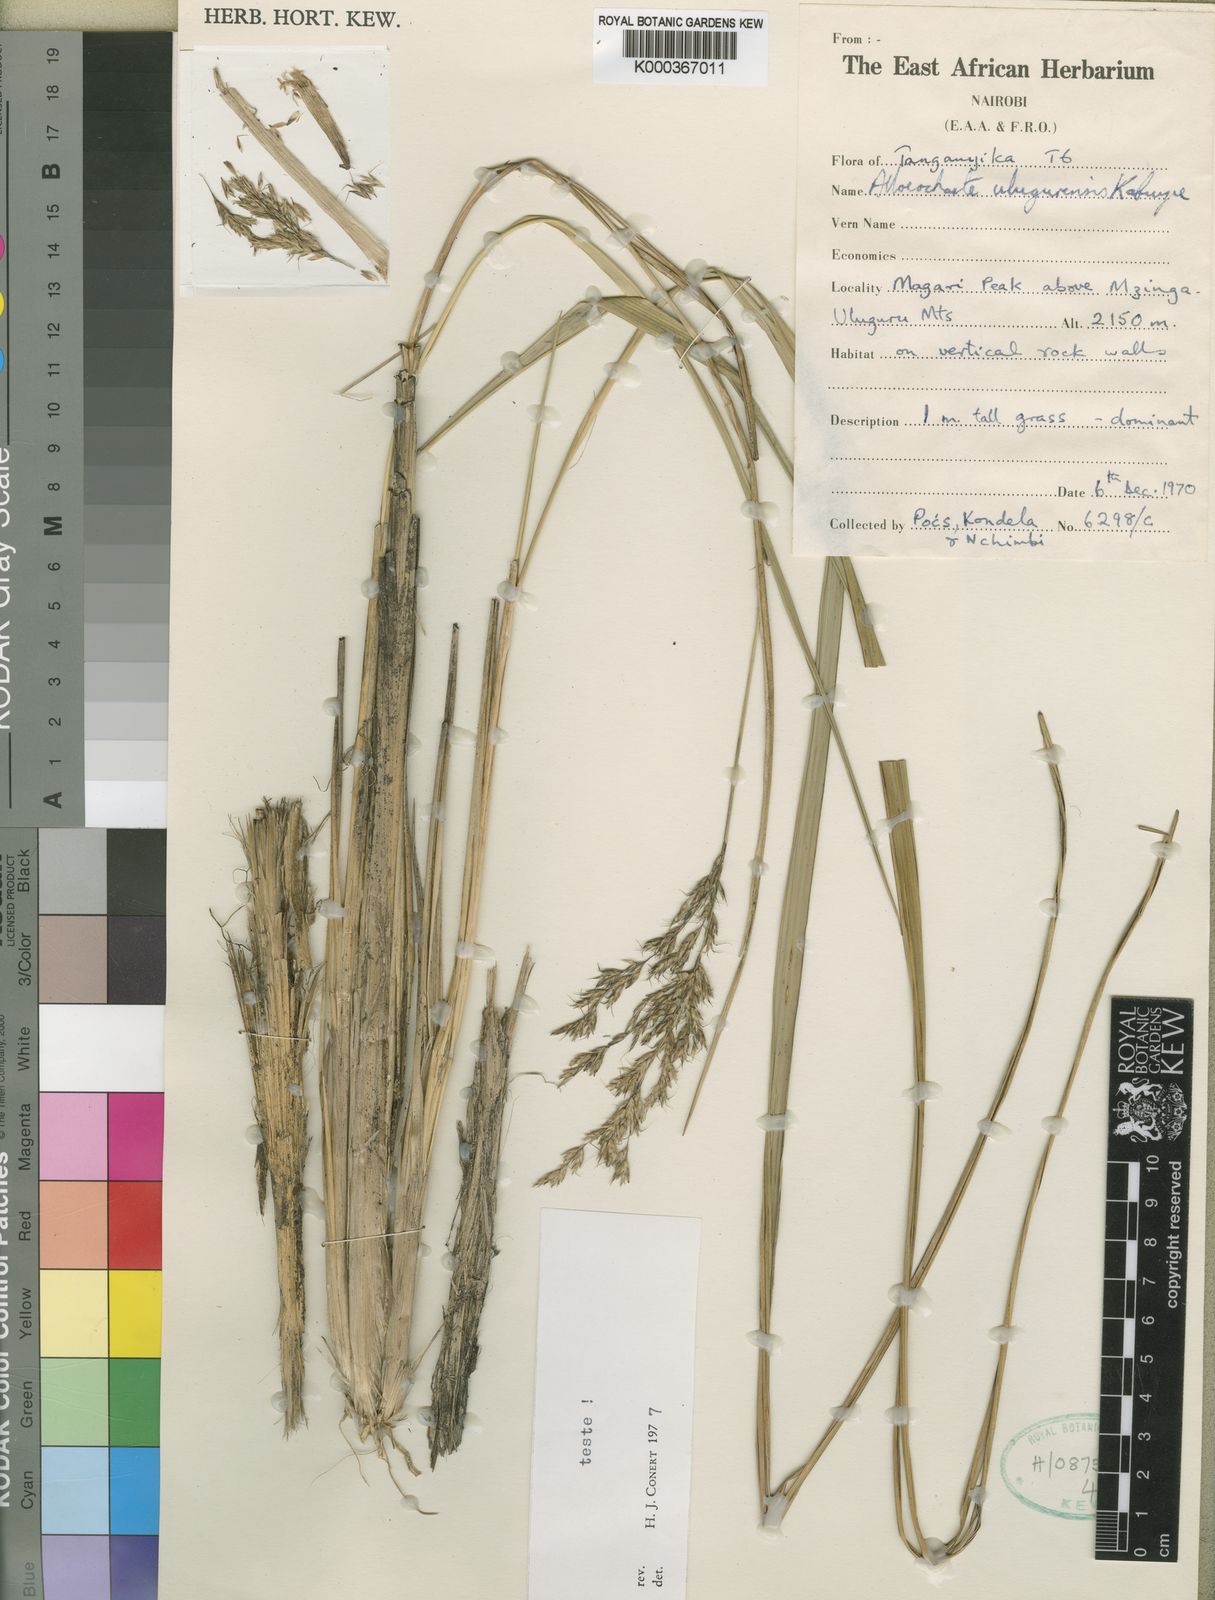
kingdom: Plantae
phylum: Tracheophyta
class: Liliopsida
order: Poales
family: Poaceae
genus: Alloeochaete
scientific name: Alloeochaete ulugurensis
